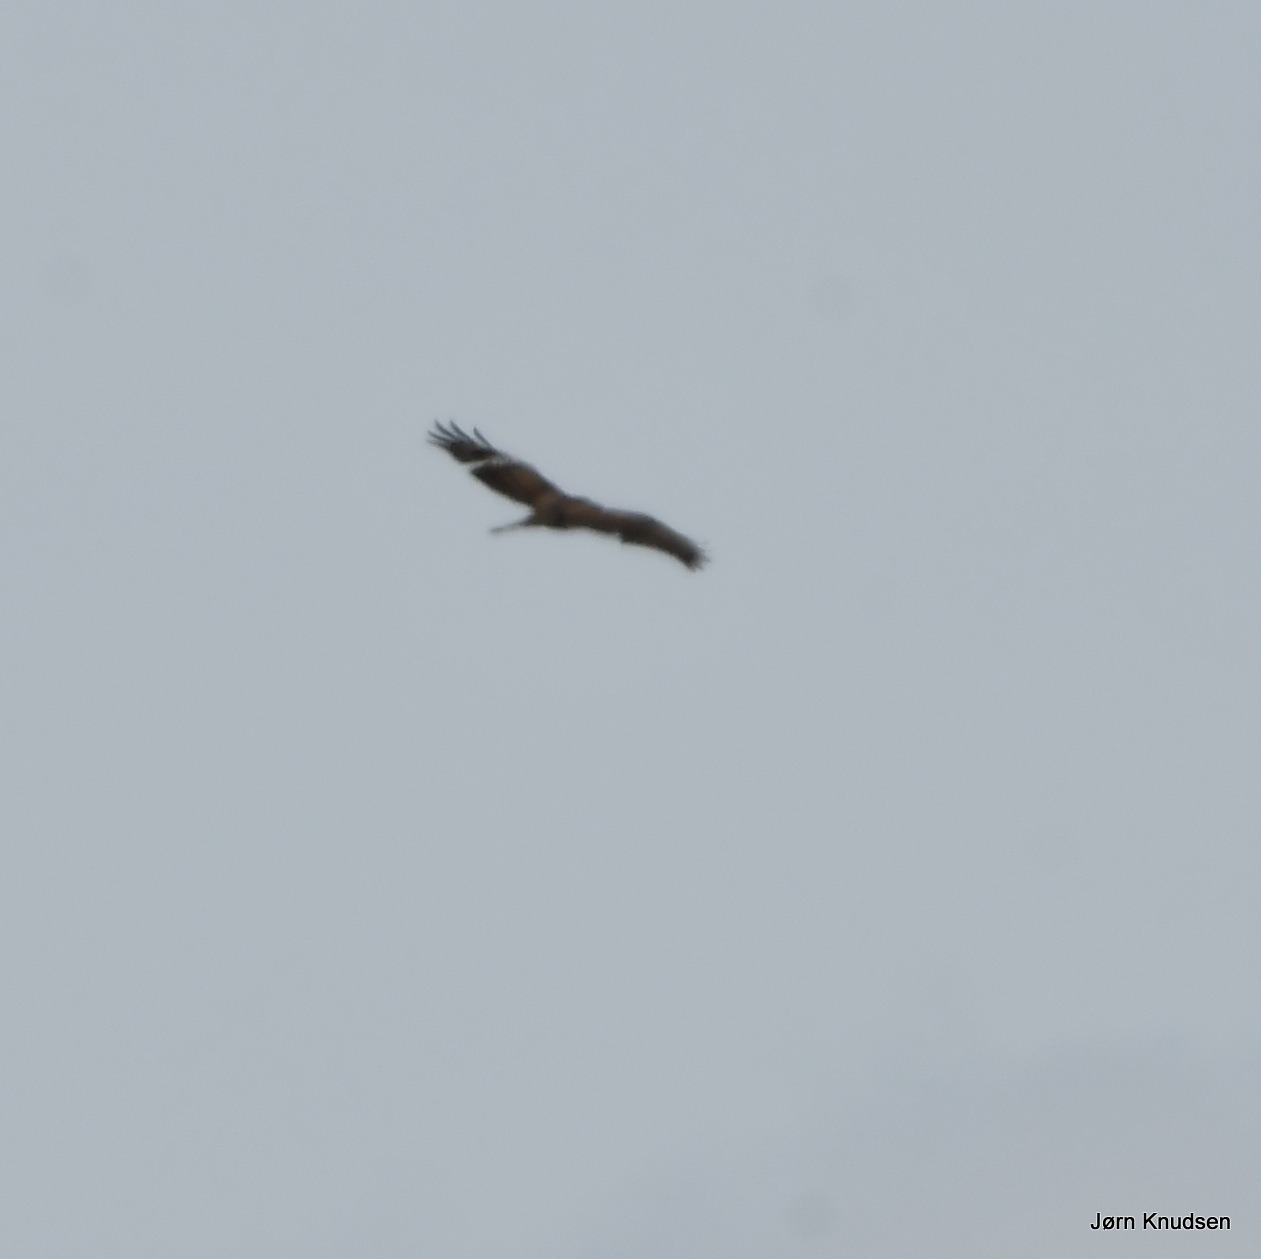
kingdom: Animalia
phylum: Chordata
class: Aves
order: Accipitriformes
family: Accipitridae
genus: Buteo
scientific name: Buteo buteo
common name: Musvåge
